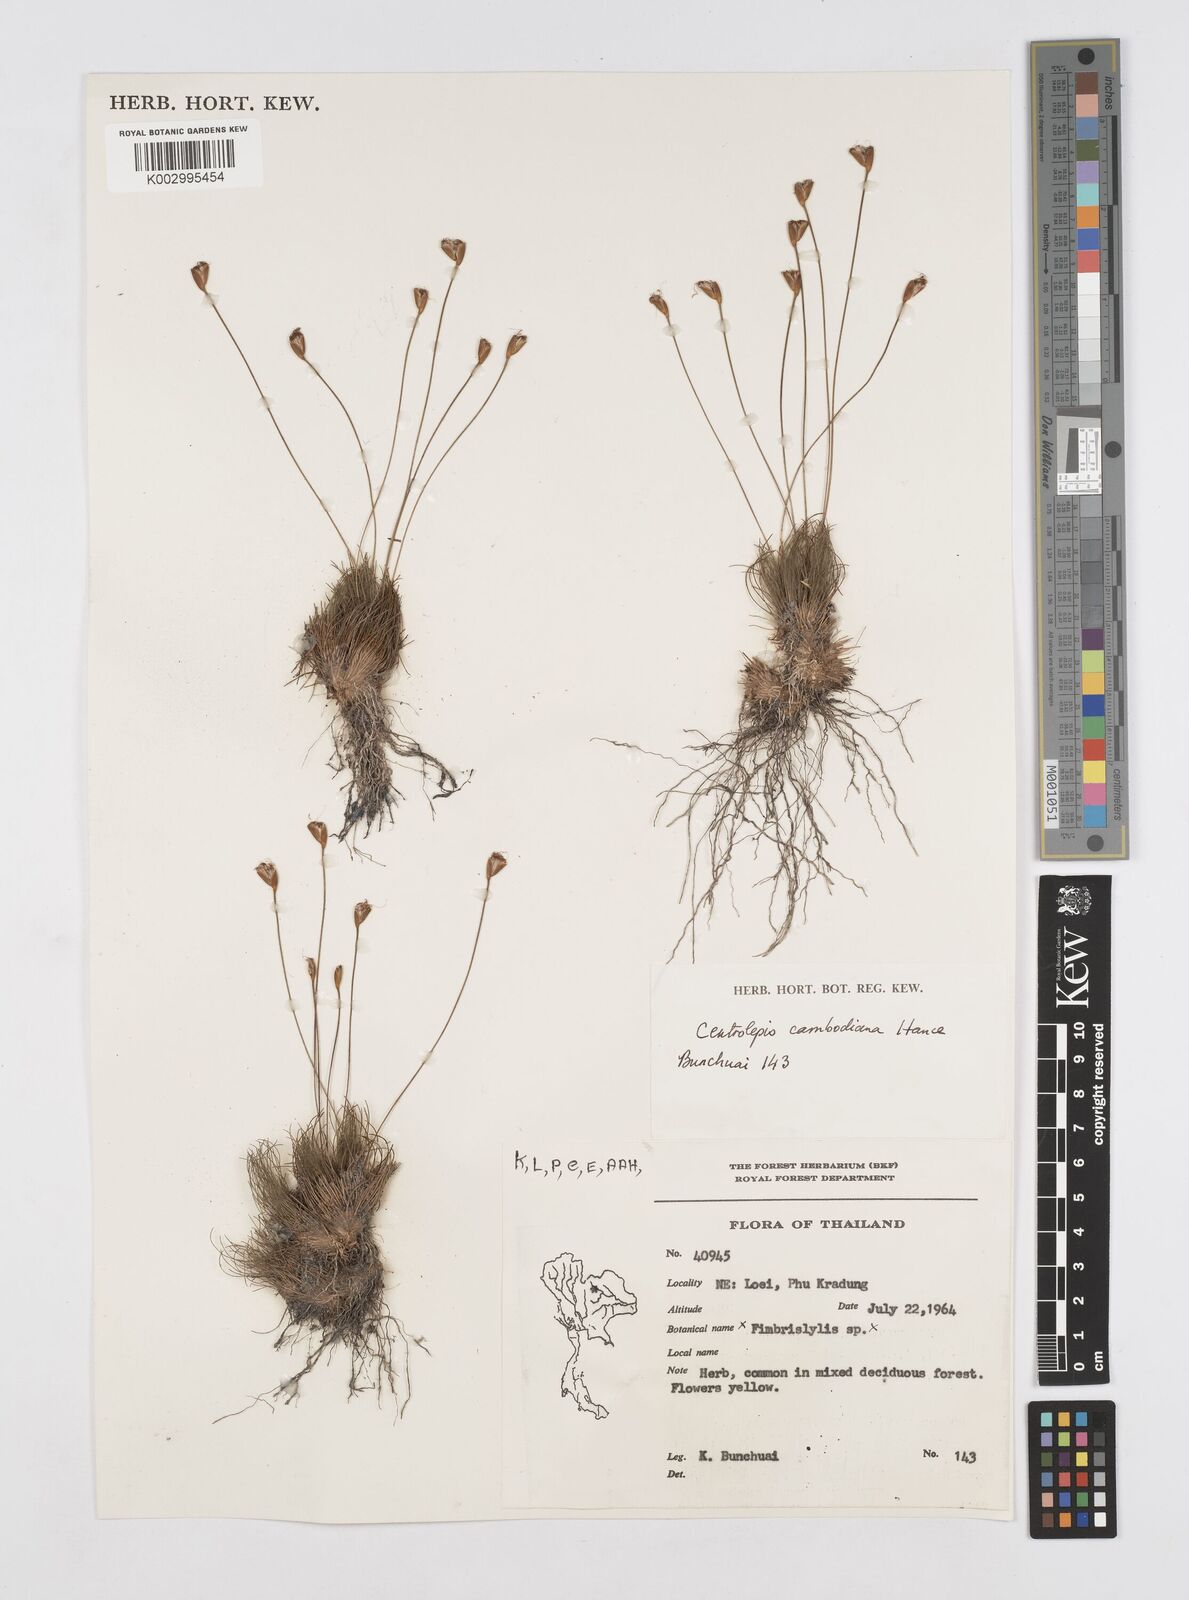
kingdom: Plantae
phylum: Tracheophyta
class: Liliopsida
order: Poales
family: Restionaceae
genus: Centrolepis
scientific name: Centrolepis cambodiana
